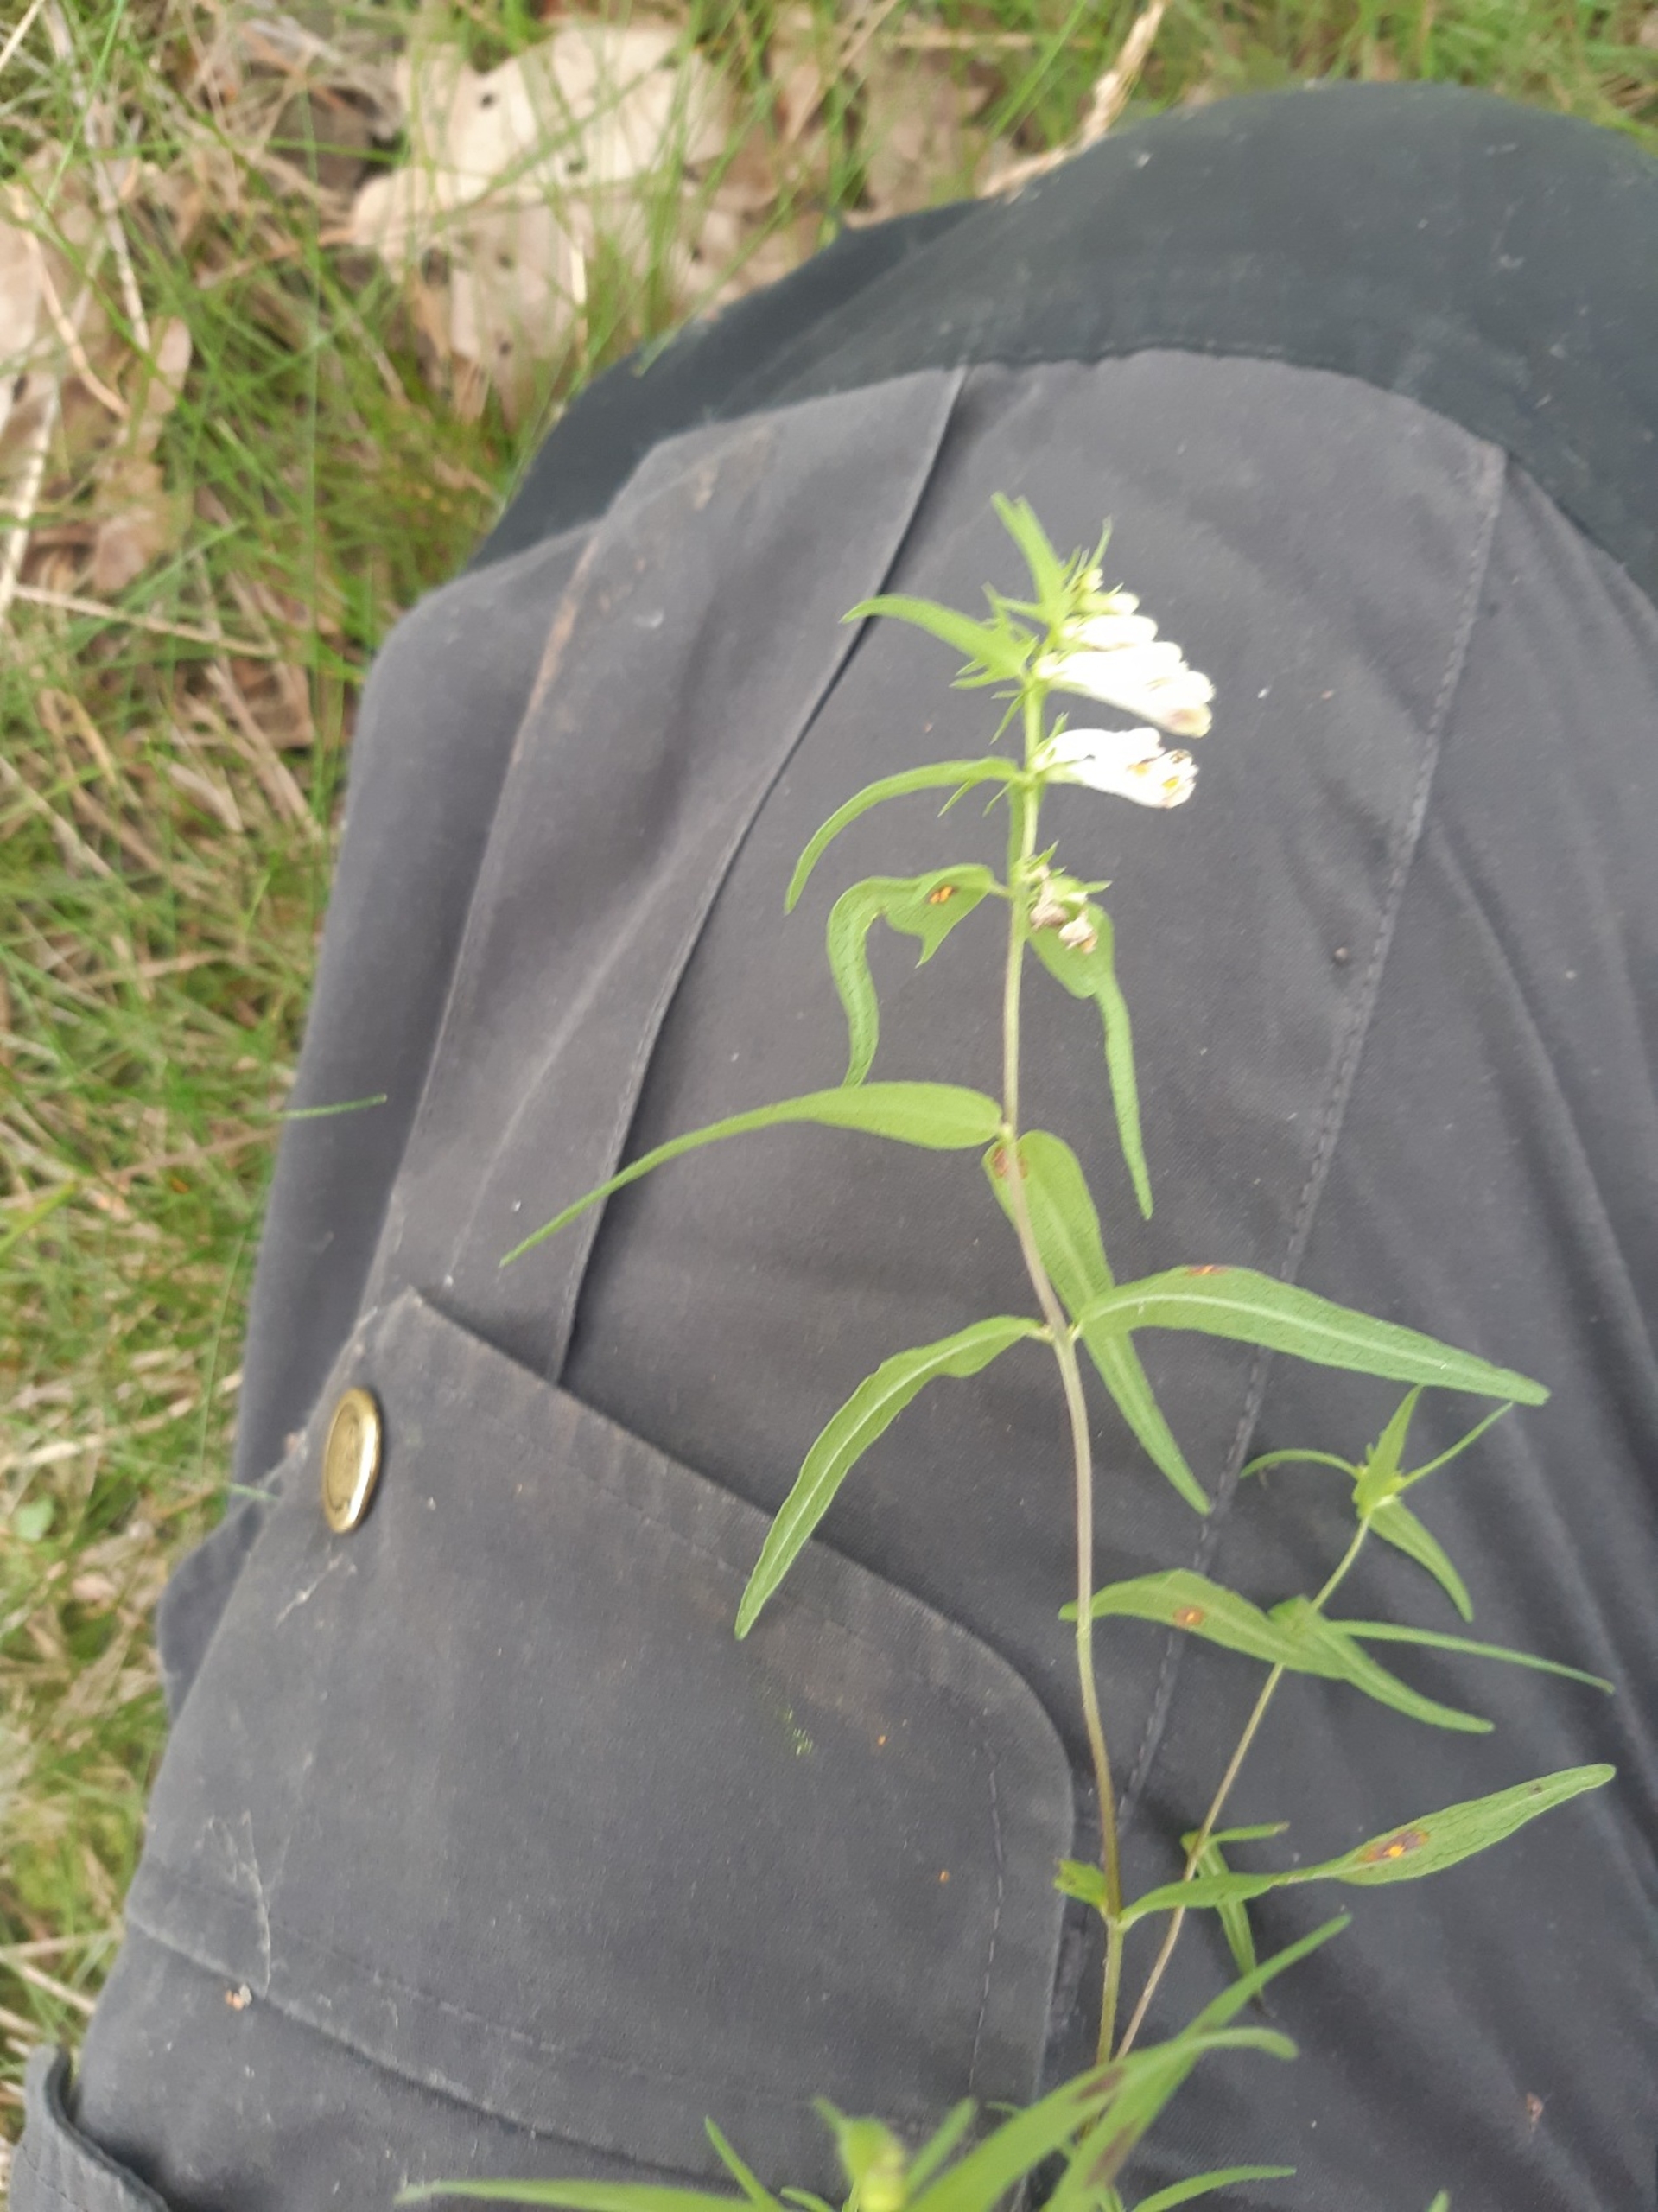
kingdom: Plantae
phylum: Tracheophyta
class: Magnoliopsida
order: Lamiales
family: Orobanchaceae
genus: Melampyrum
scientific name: Melampyrum pratense
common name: Almindelig kohvede
